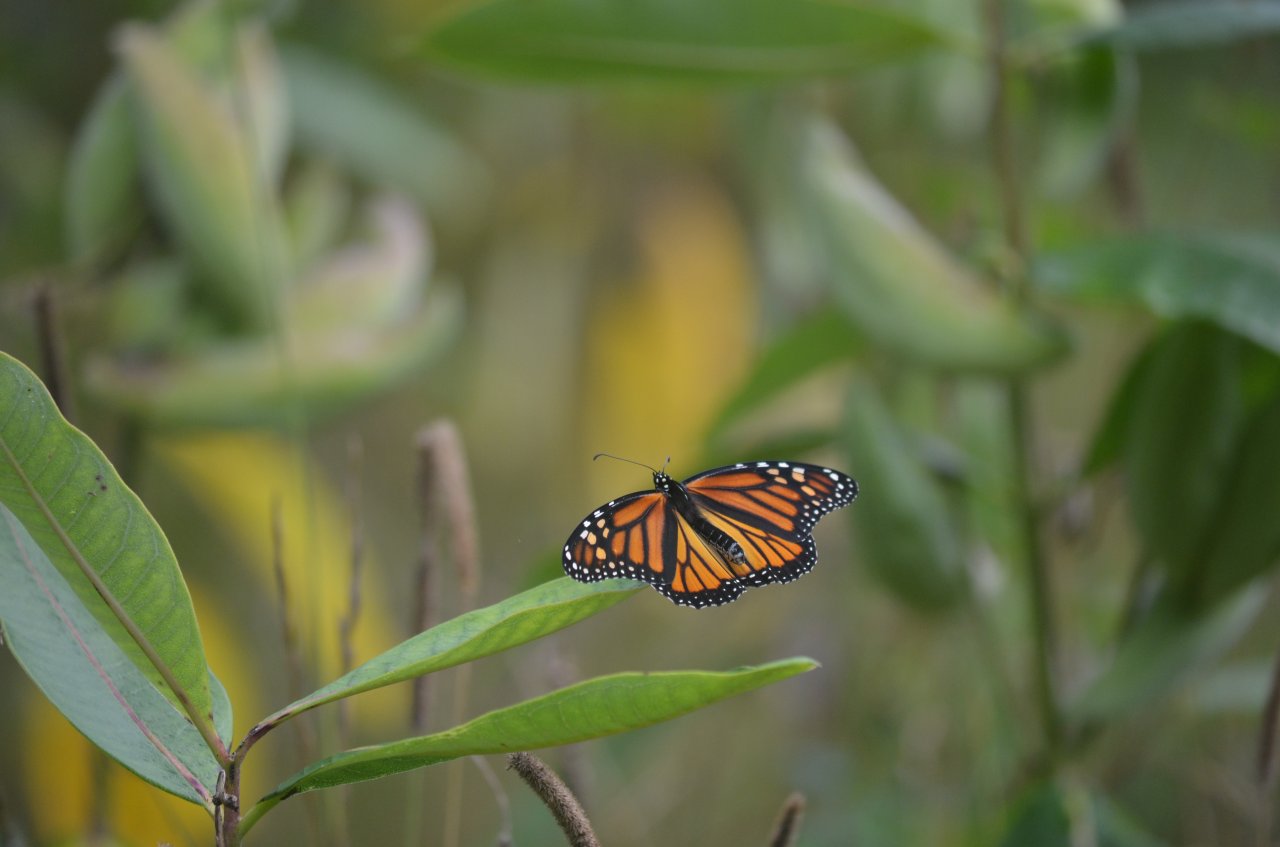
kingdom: Animalia
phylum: Arthropoda
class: Insecta
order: Lepidoptera
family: Nymphalidae
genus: Danaus
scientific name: Danaus plexippus
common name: Monarch
